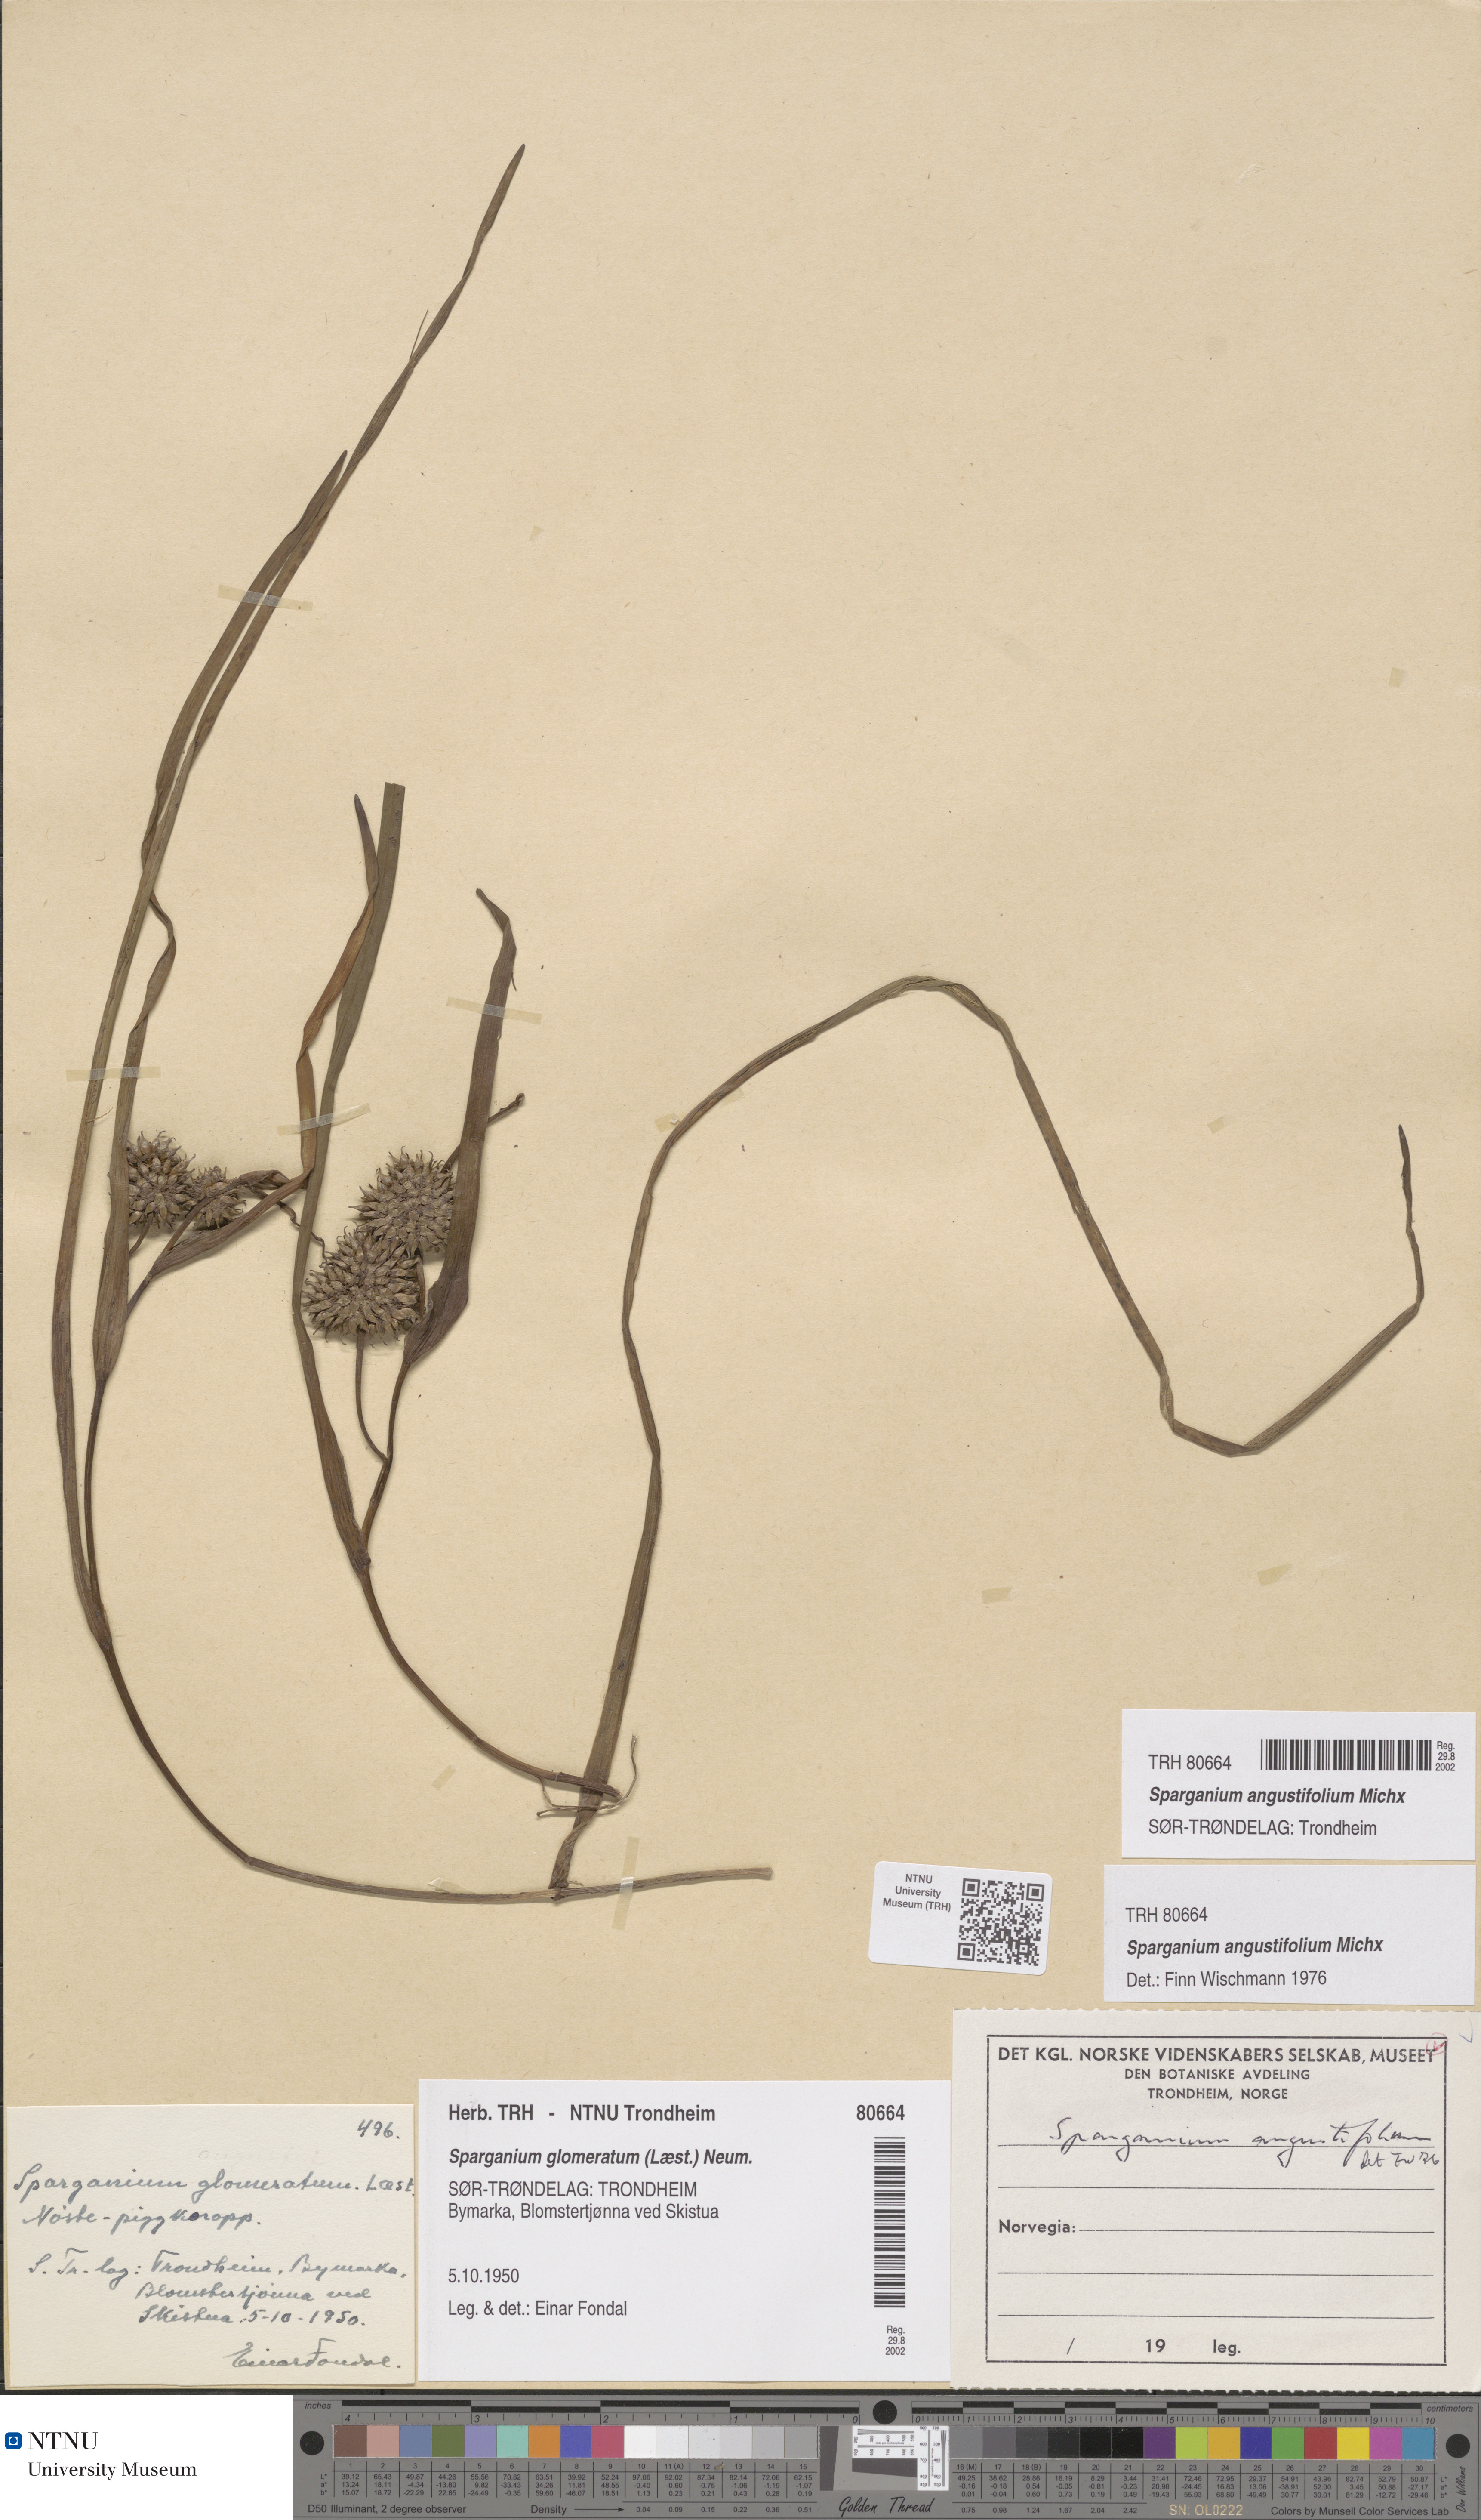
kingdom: Plantae
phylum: Tracheophyta
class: Liliopsida
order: Poales
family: Typhaceae
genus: Sparganium
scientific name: Sparganium angustifolium
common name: Floating bur-reed
